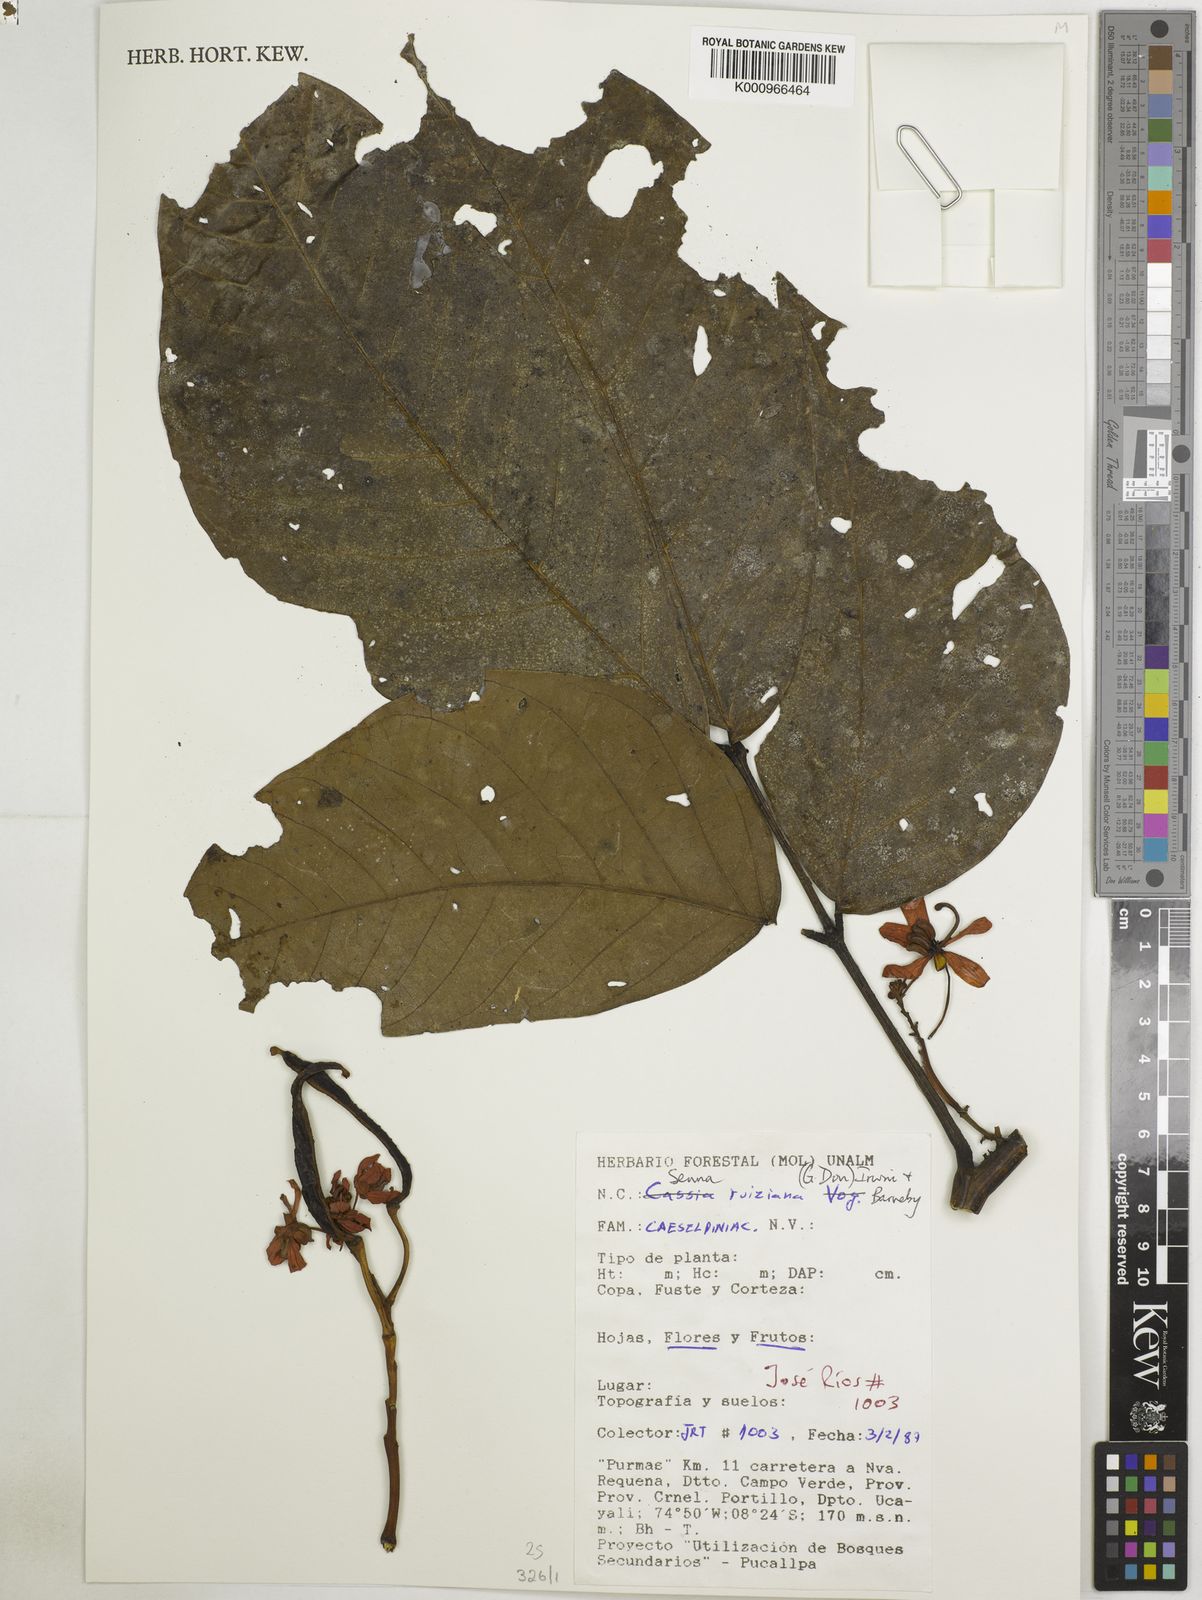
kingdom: Plantae
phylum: Tracheophyta
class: Magnoliopsida
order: Fabales
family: Fabaceae
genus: Senna
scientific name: Senna ruiziana
